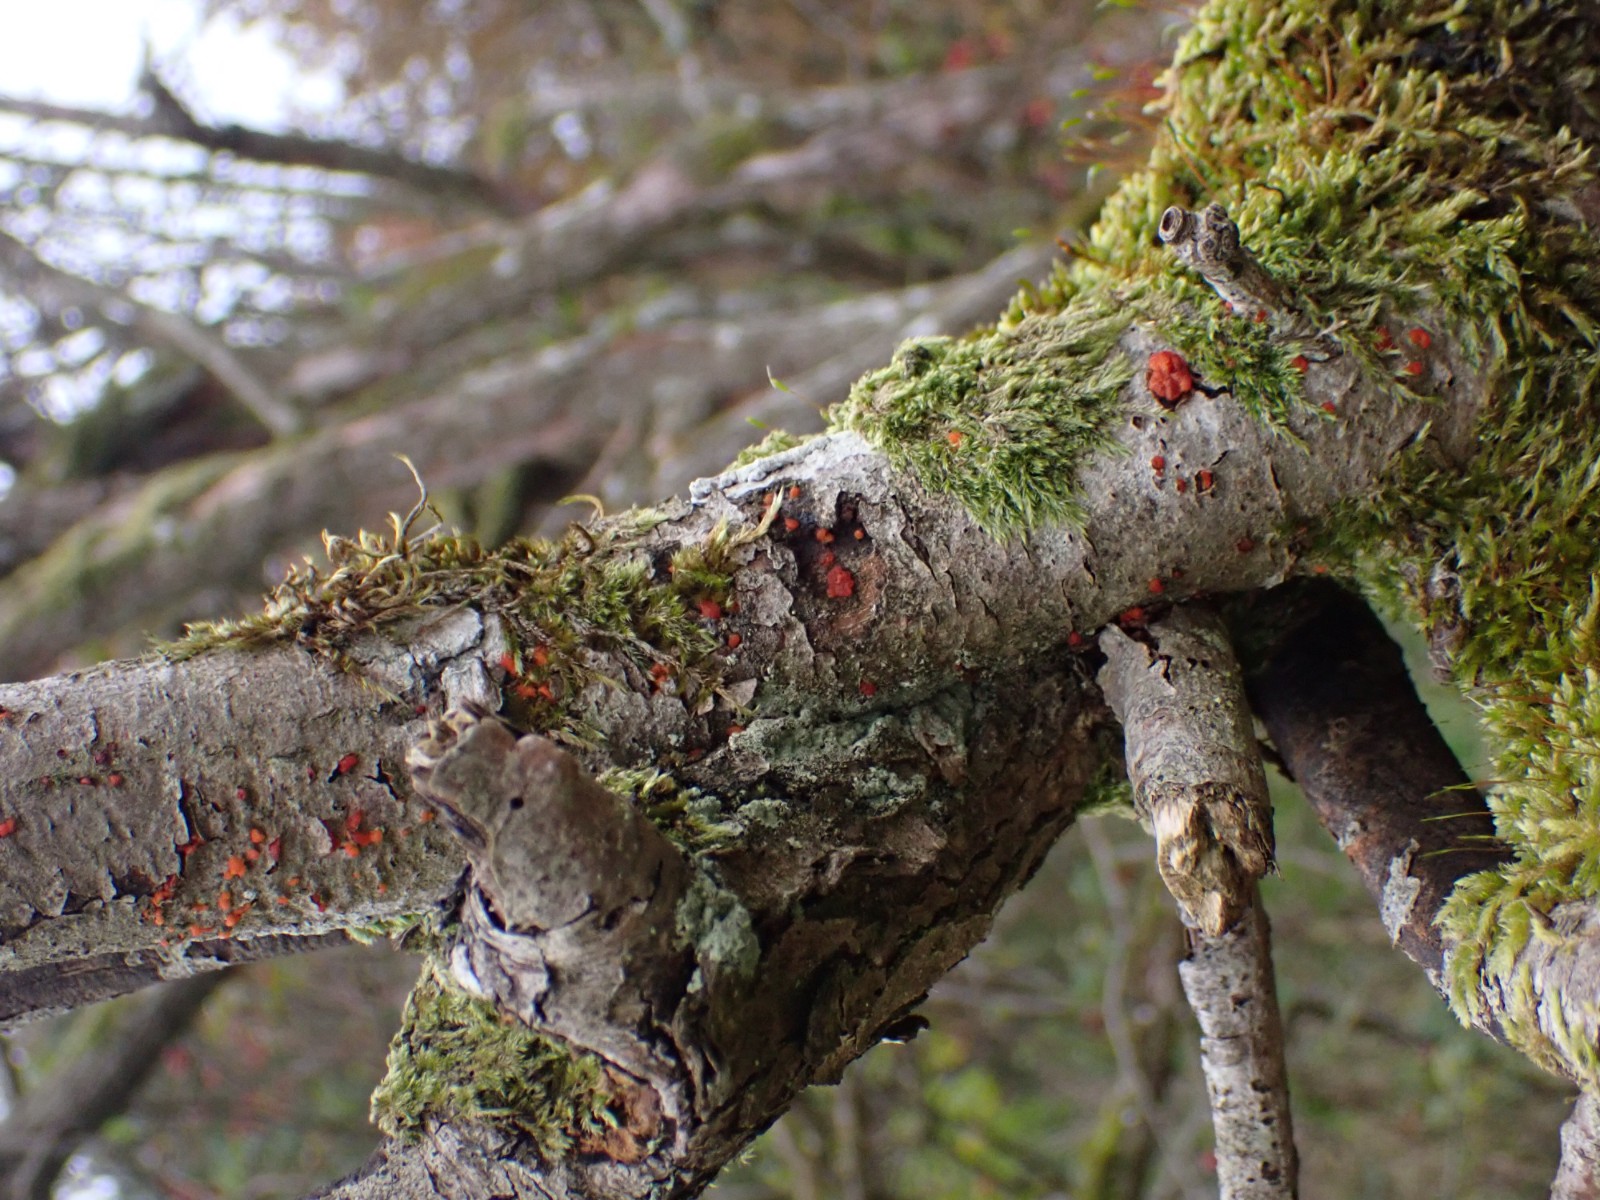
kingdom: Fungi
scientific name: Fungi
